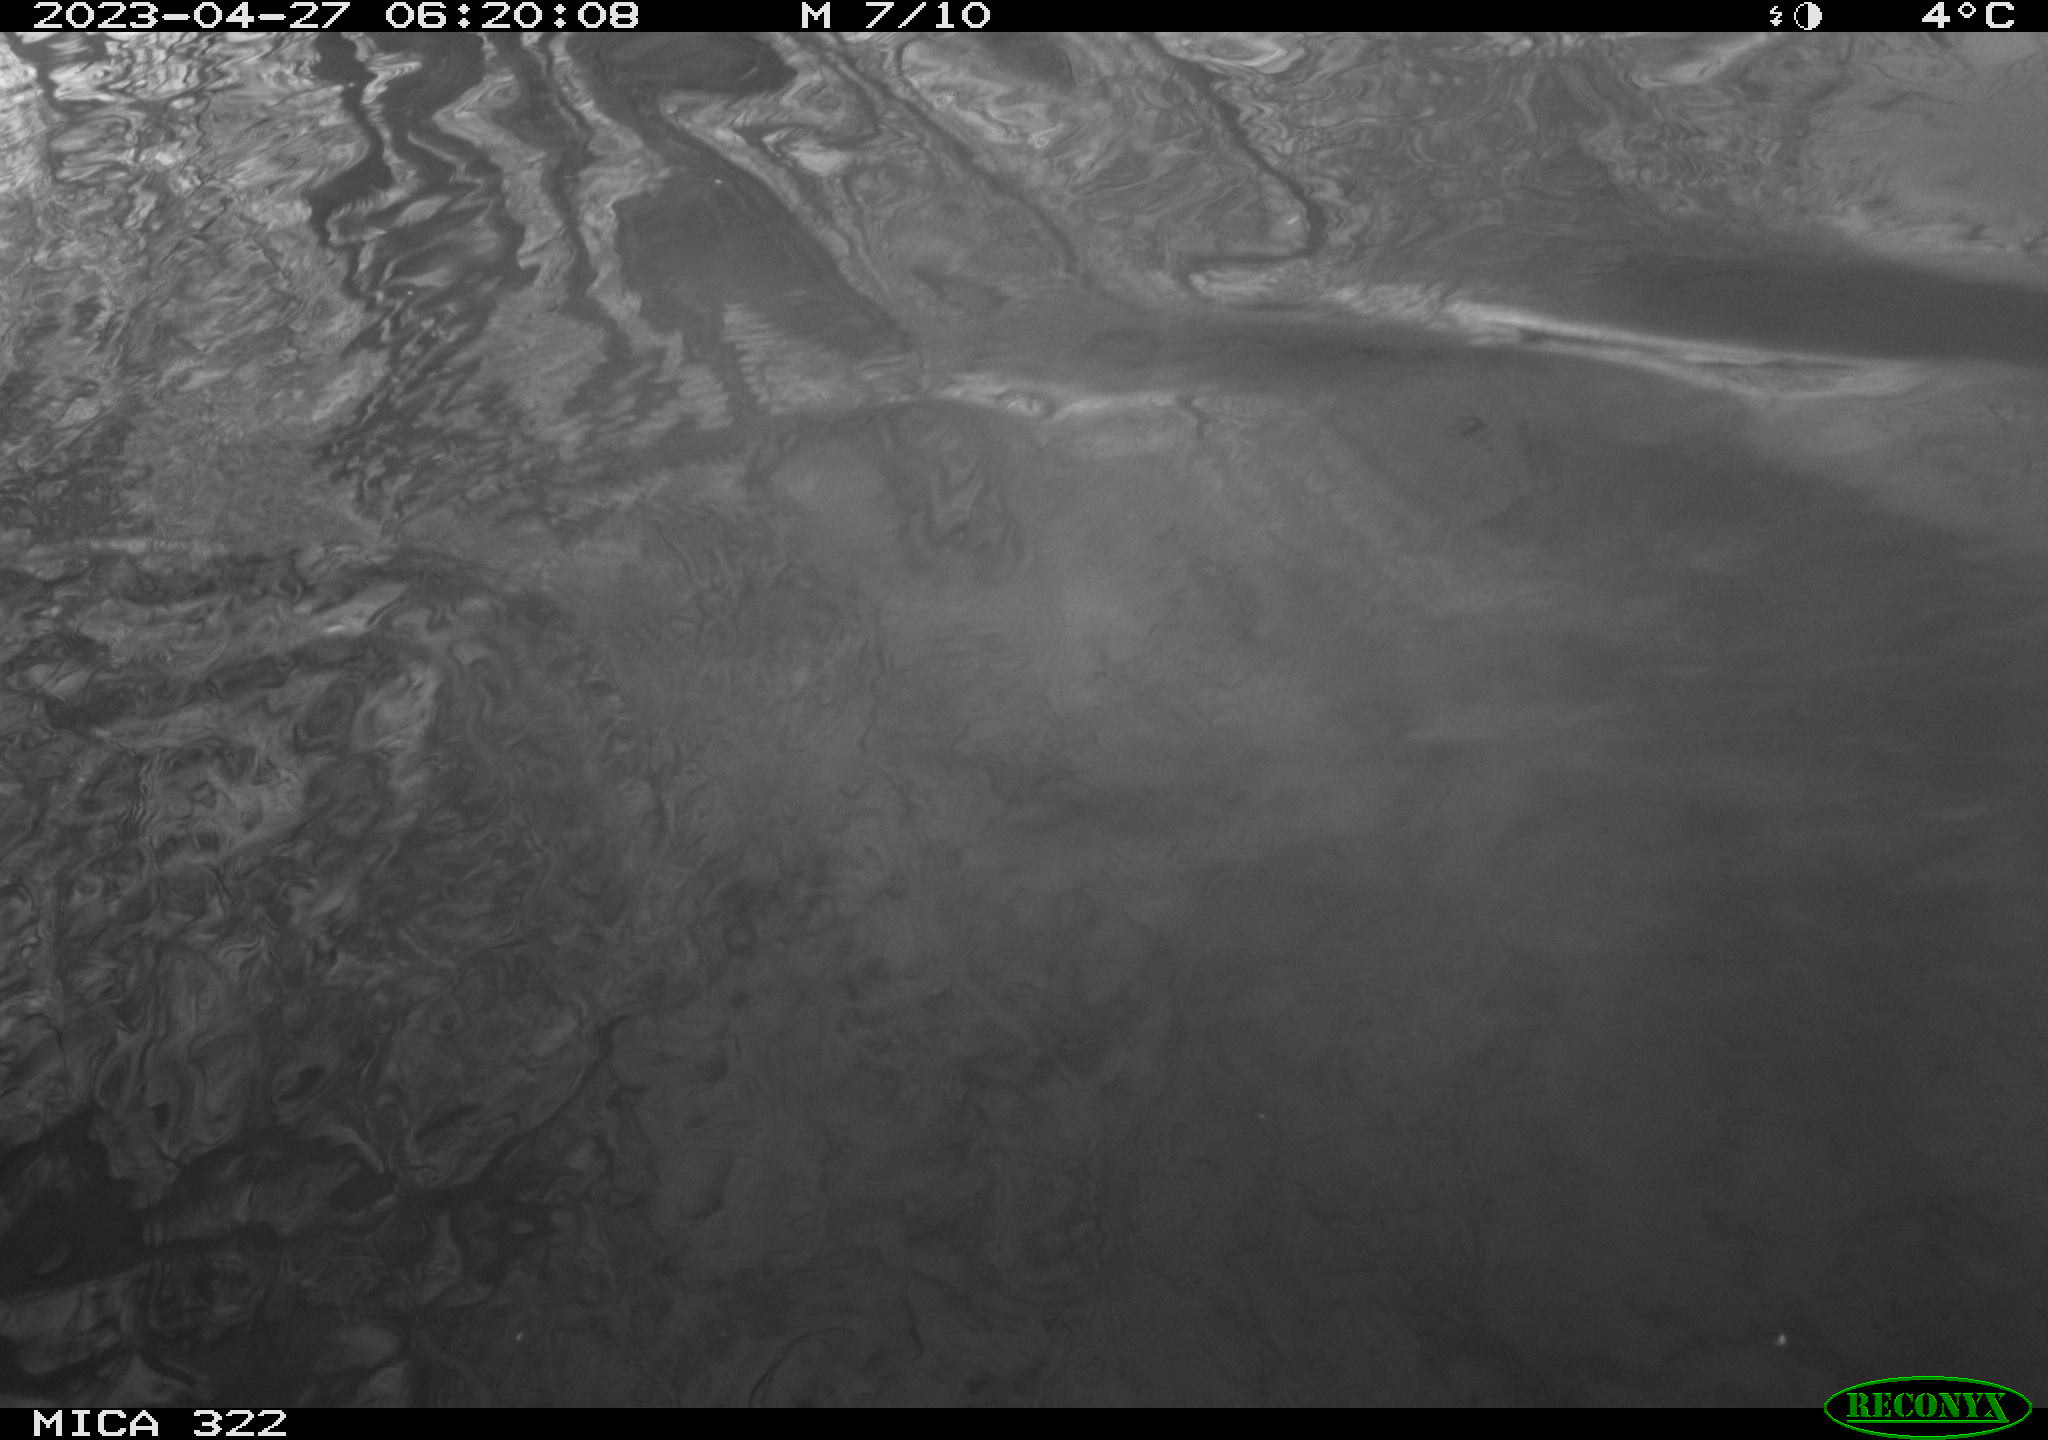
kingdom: Animalia
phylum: Chordata
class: Aves
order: Anseriformes
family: Anatidae
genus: Anas
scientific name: Anas
